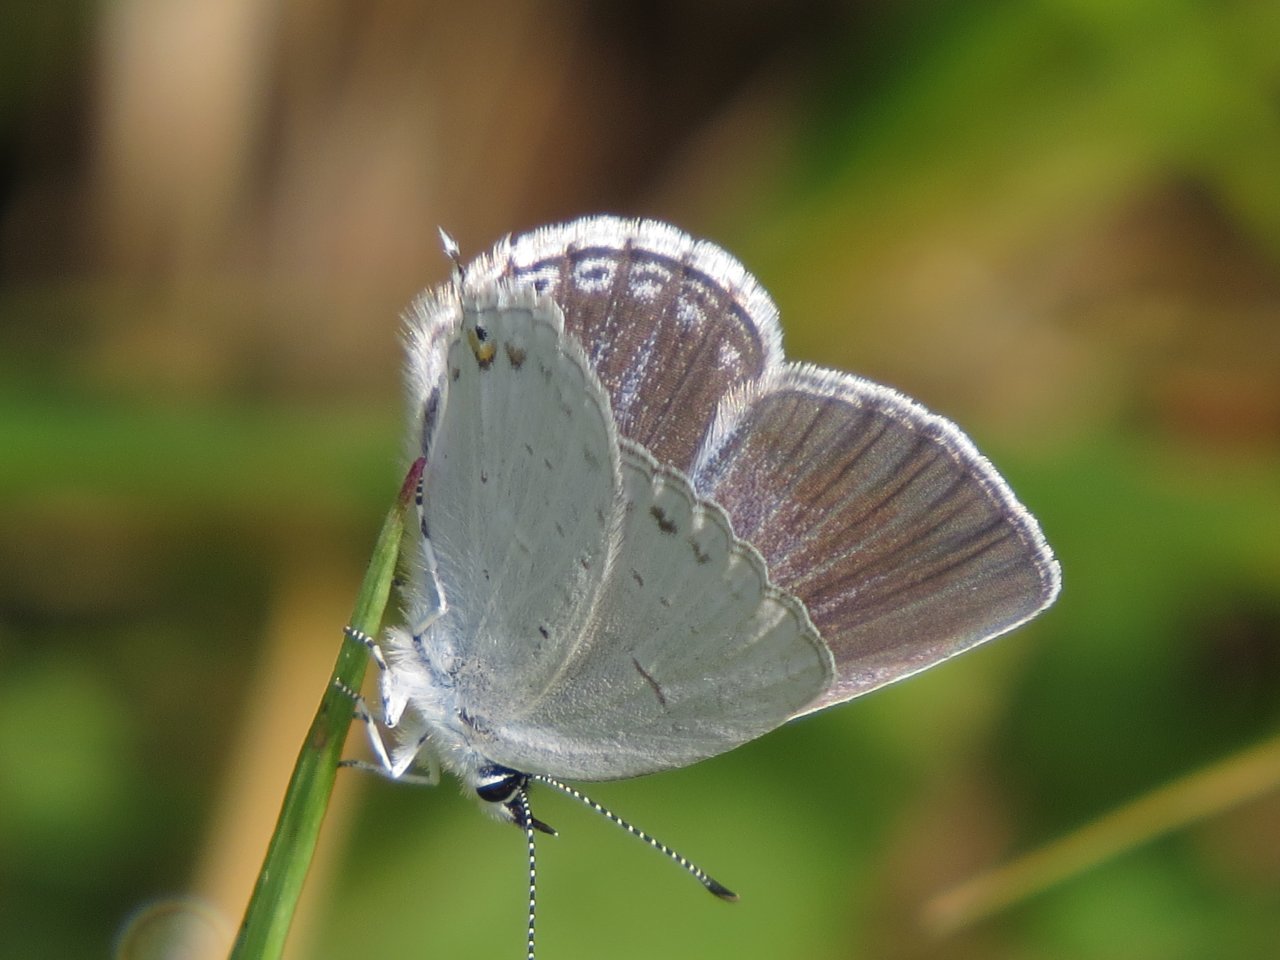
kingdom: Animalia
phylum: Arthropoda
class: Insecta
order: Lepidoptera
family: Lycaenidae
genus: Elkalyce
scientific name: Elkalyce amyntula
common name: Western Tailed-Blue
